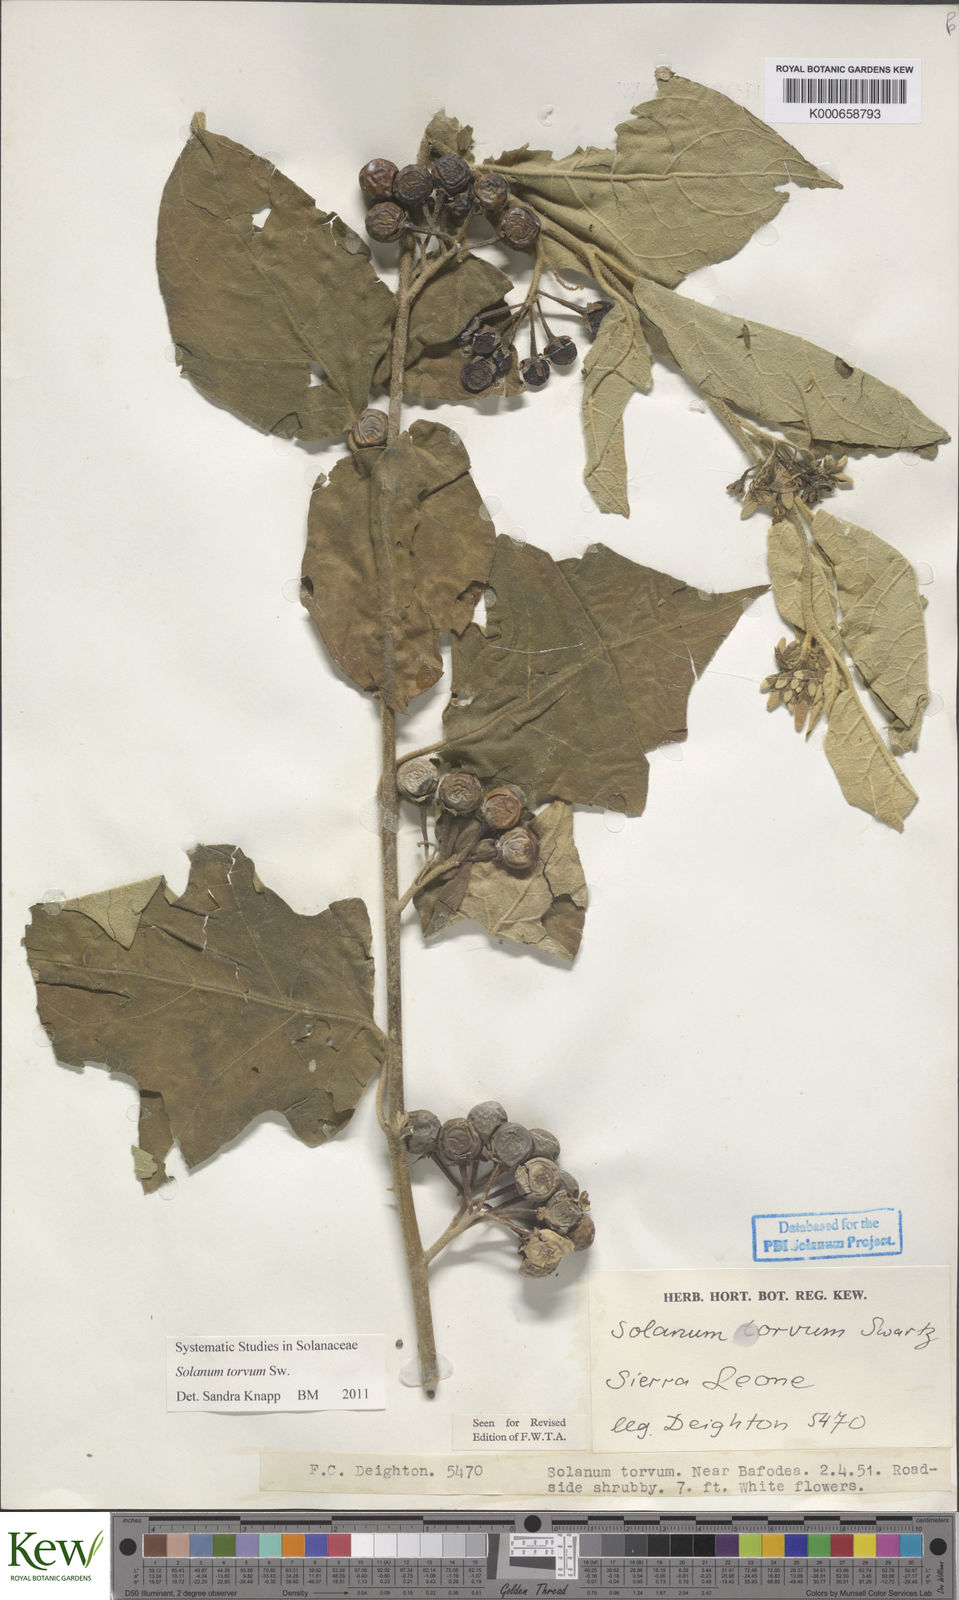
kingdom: Plantae
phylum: Tracheophyta
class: Magnoliopsida
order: Solanales
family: Solanaceae
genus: Solanum
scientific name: Solanum torvum
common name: Turkey berry
